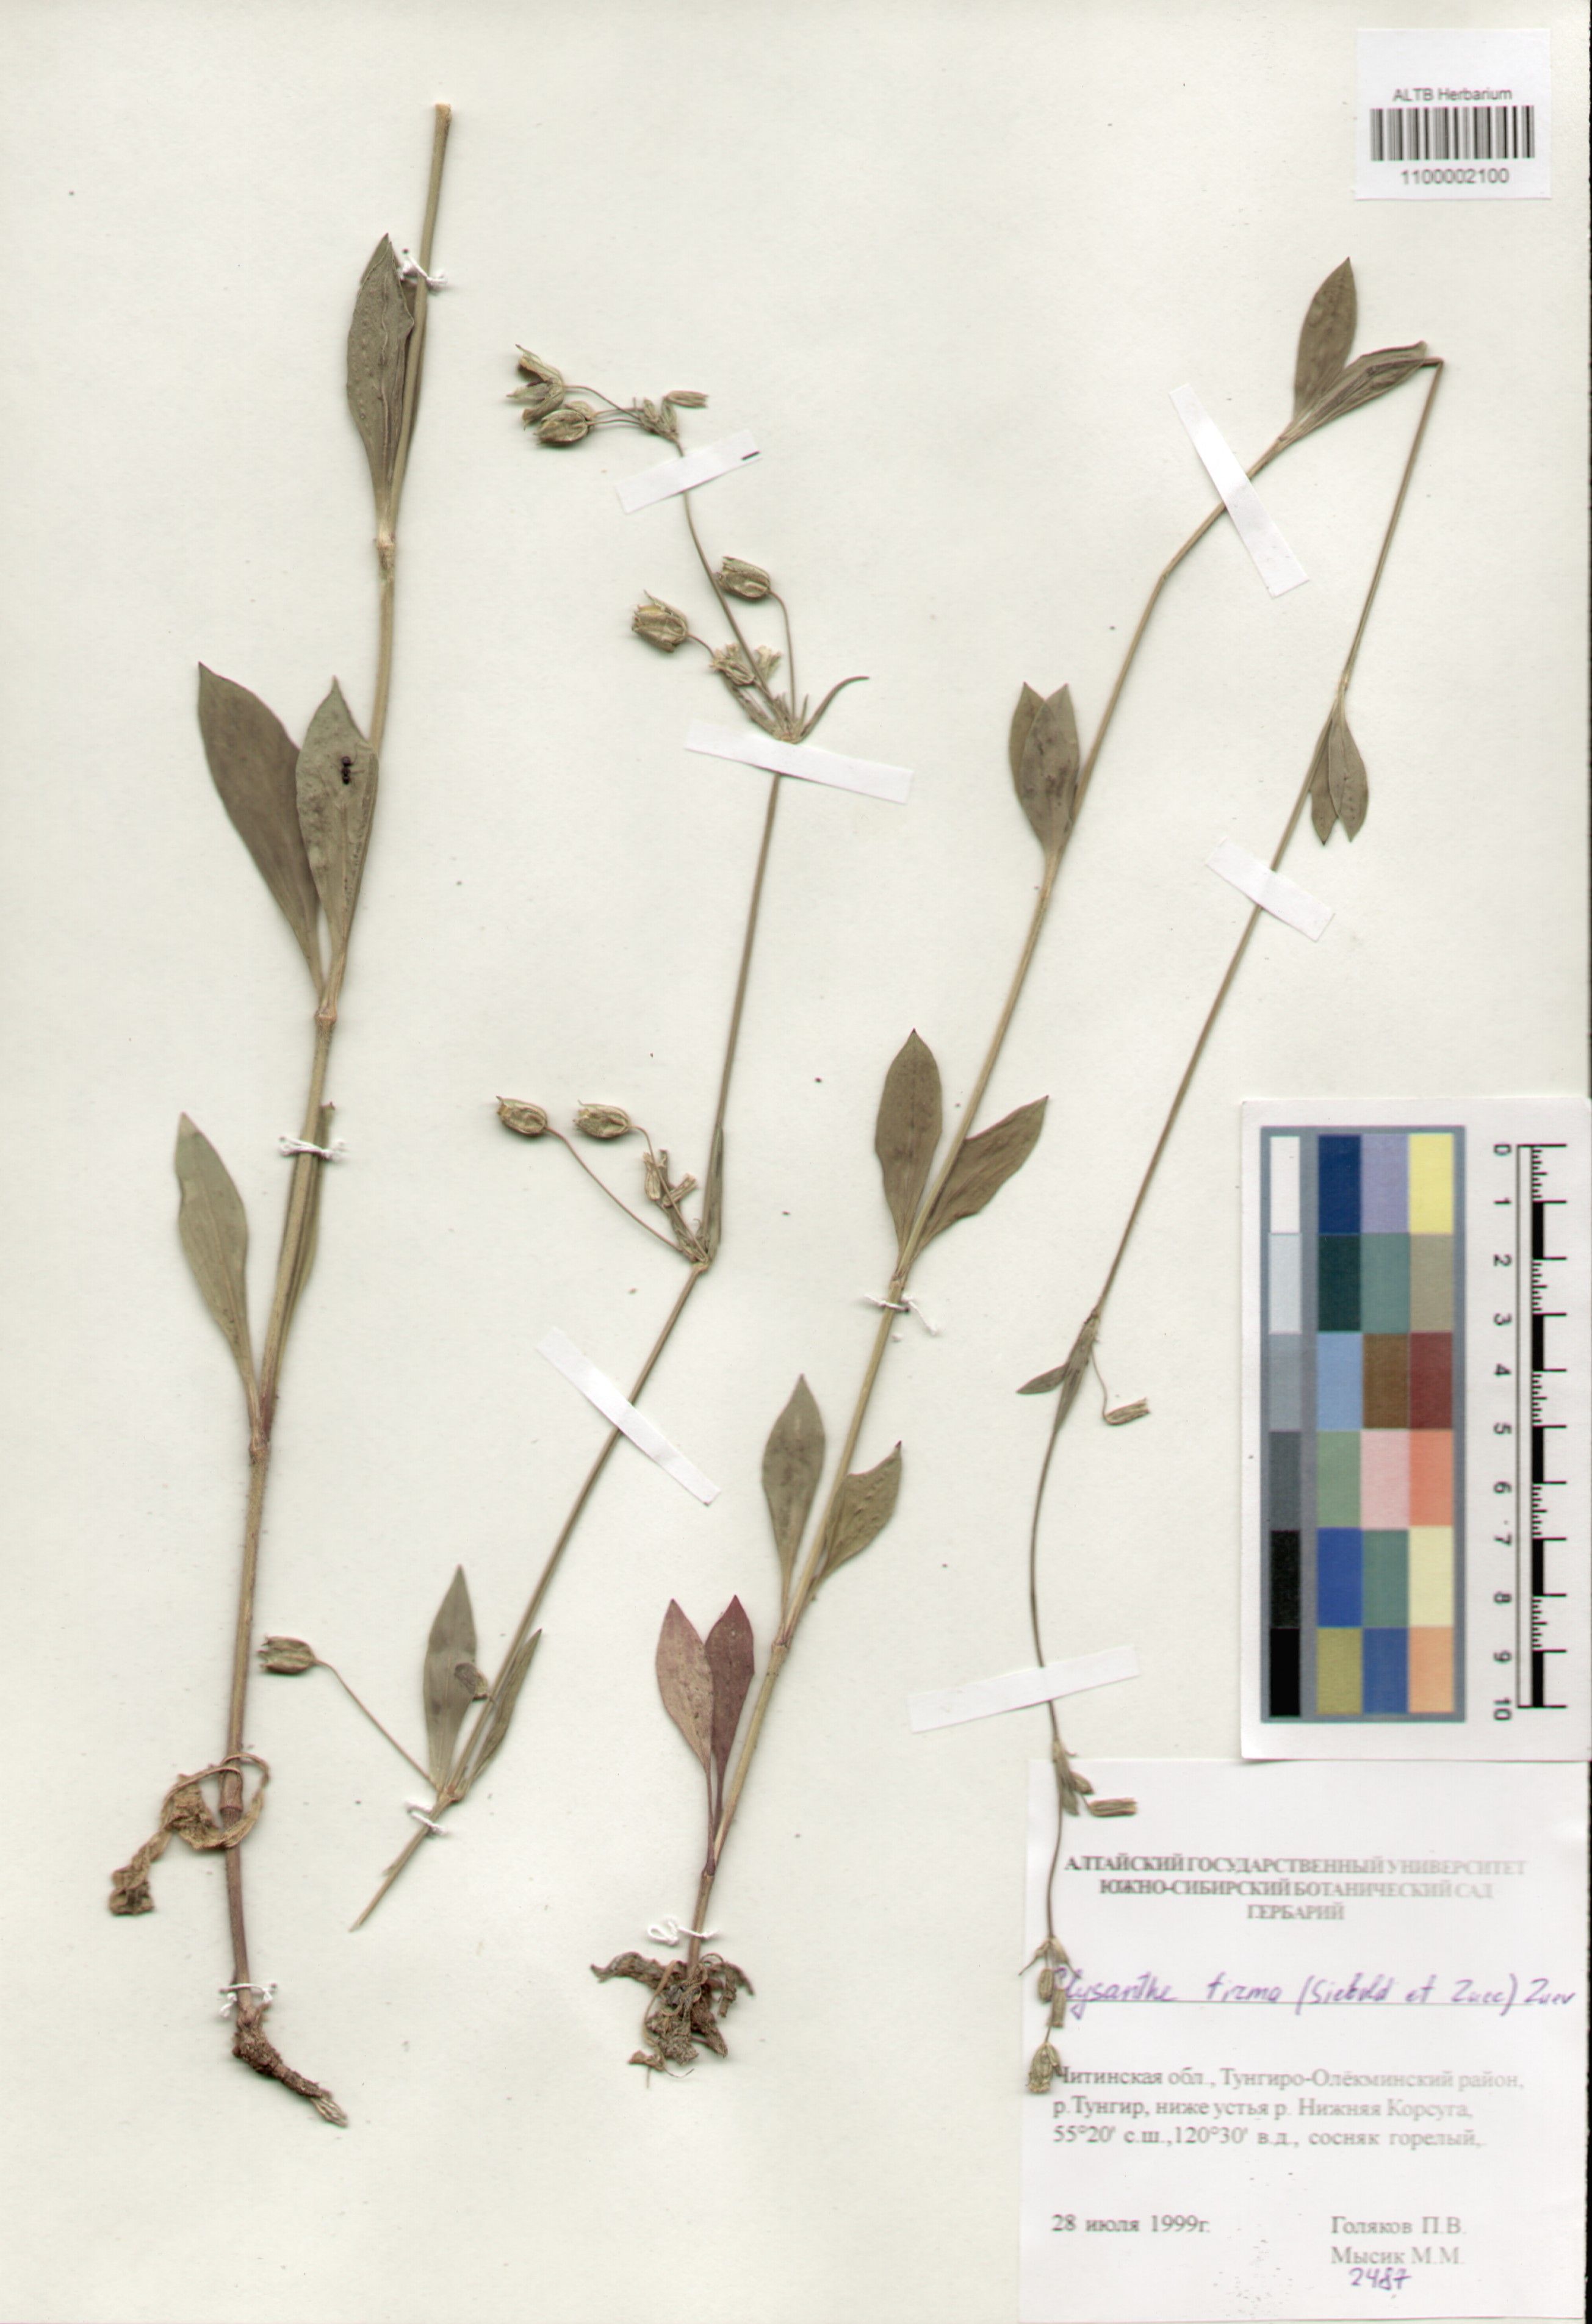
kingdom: Plantae
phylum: Tracheophyta
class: Magnoliopsida
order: Caryophyllales
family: Caryophyllaceae
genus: Silene
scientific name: Silene firma
